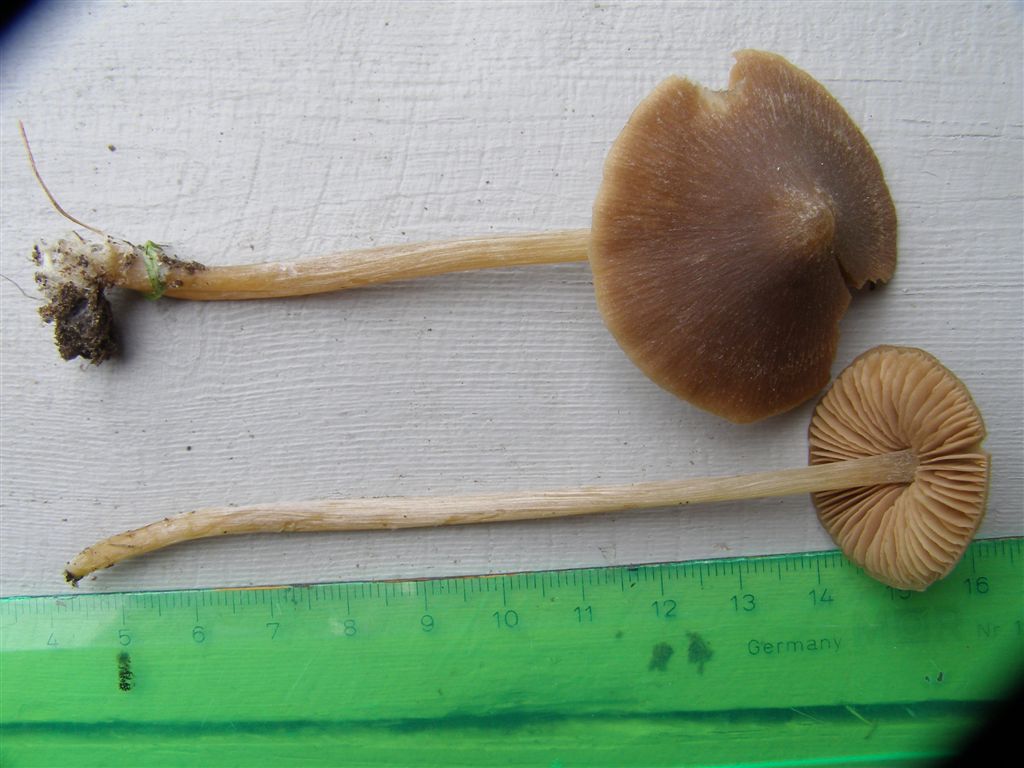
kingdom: Fungi
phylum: Basidiomycota
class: Agaricomycetes
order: Agaricales
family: Entolomataceae
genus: Entoloma
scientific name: Entoloma cetratum
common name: voks-rødblad
